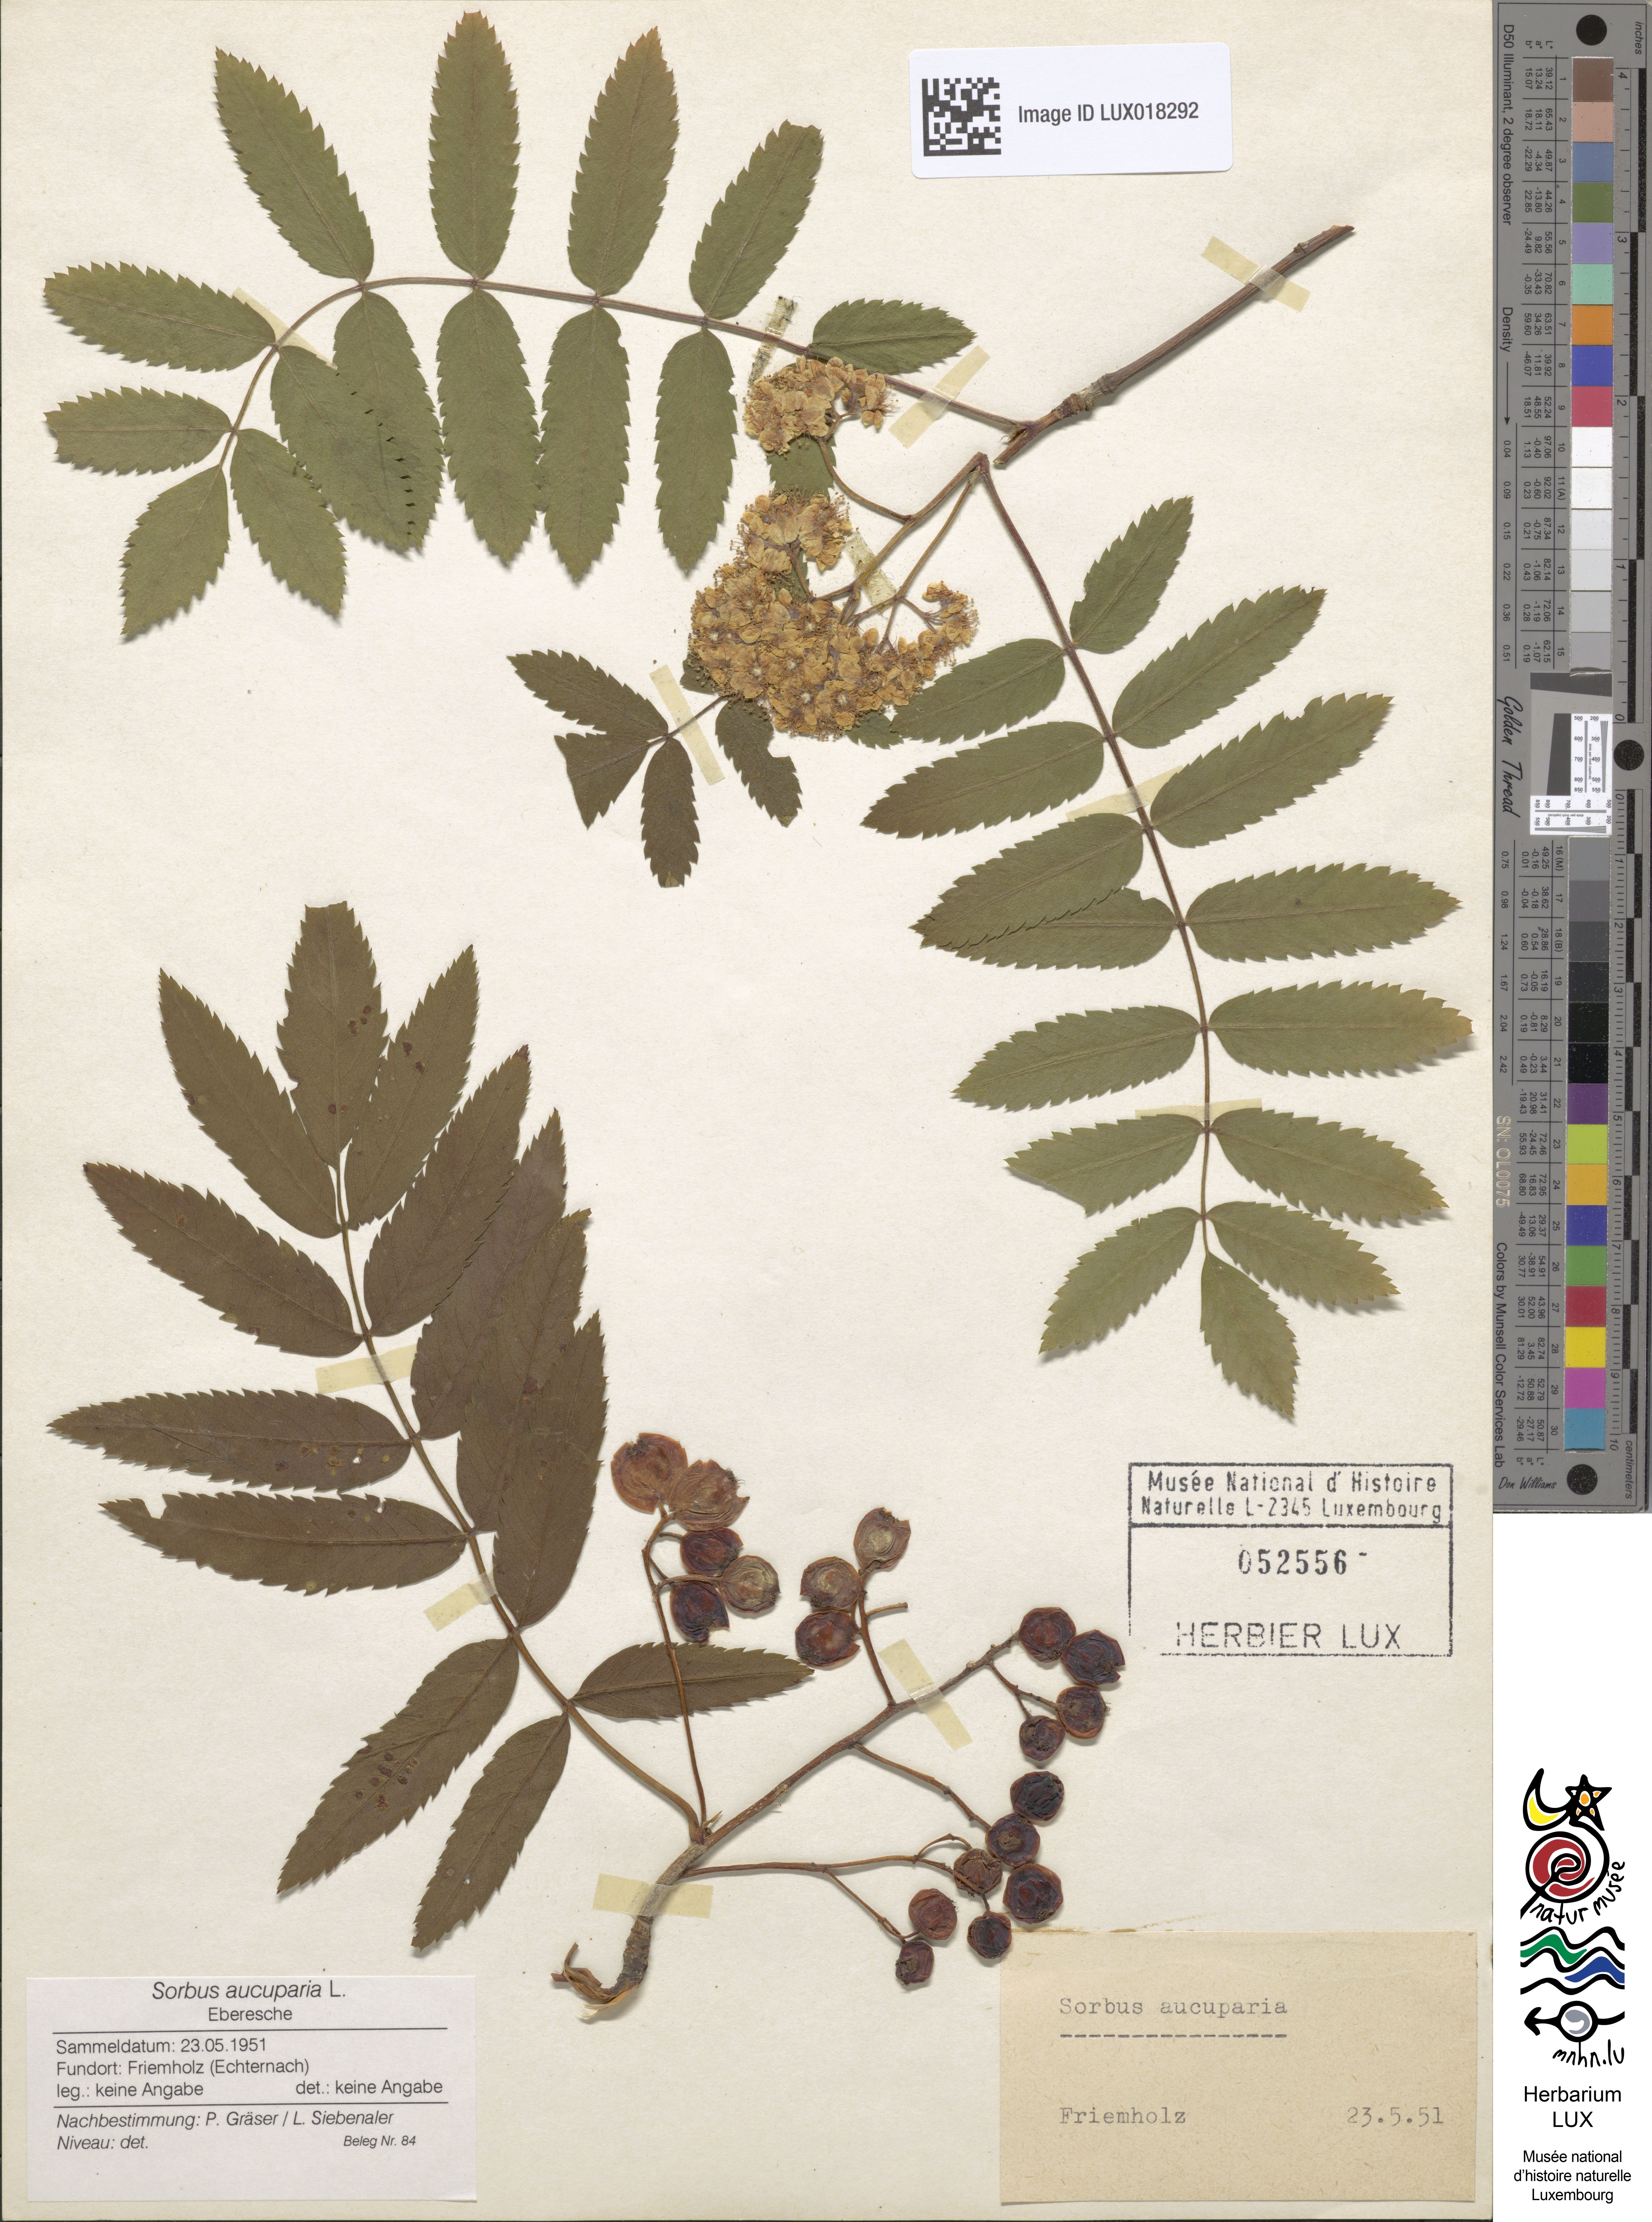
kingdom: Plantae
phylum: Tracheophyta
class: Magnoliopsida
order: Rosales
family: Rosaceae
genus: Sorbus
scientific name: Sorbus aucuparia
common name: Rowan
